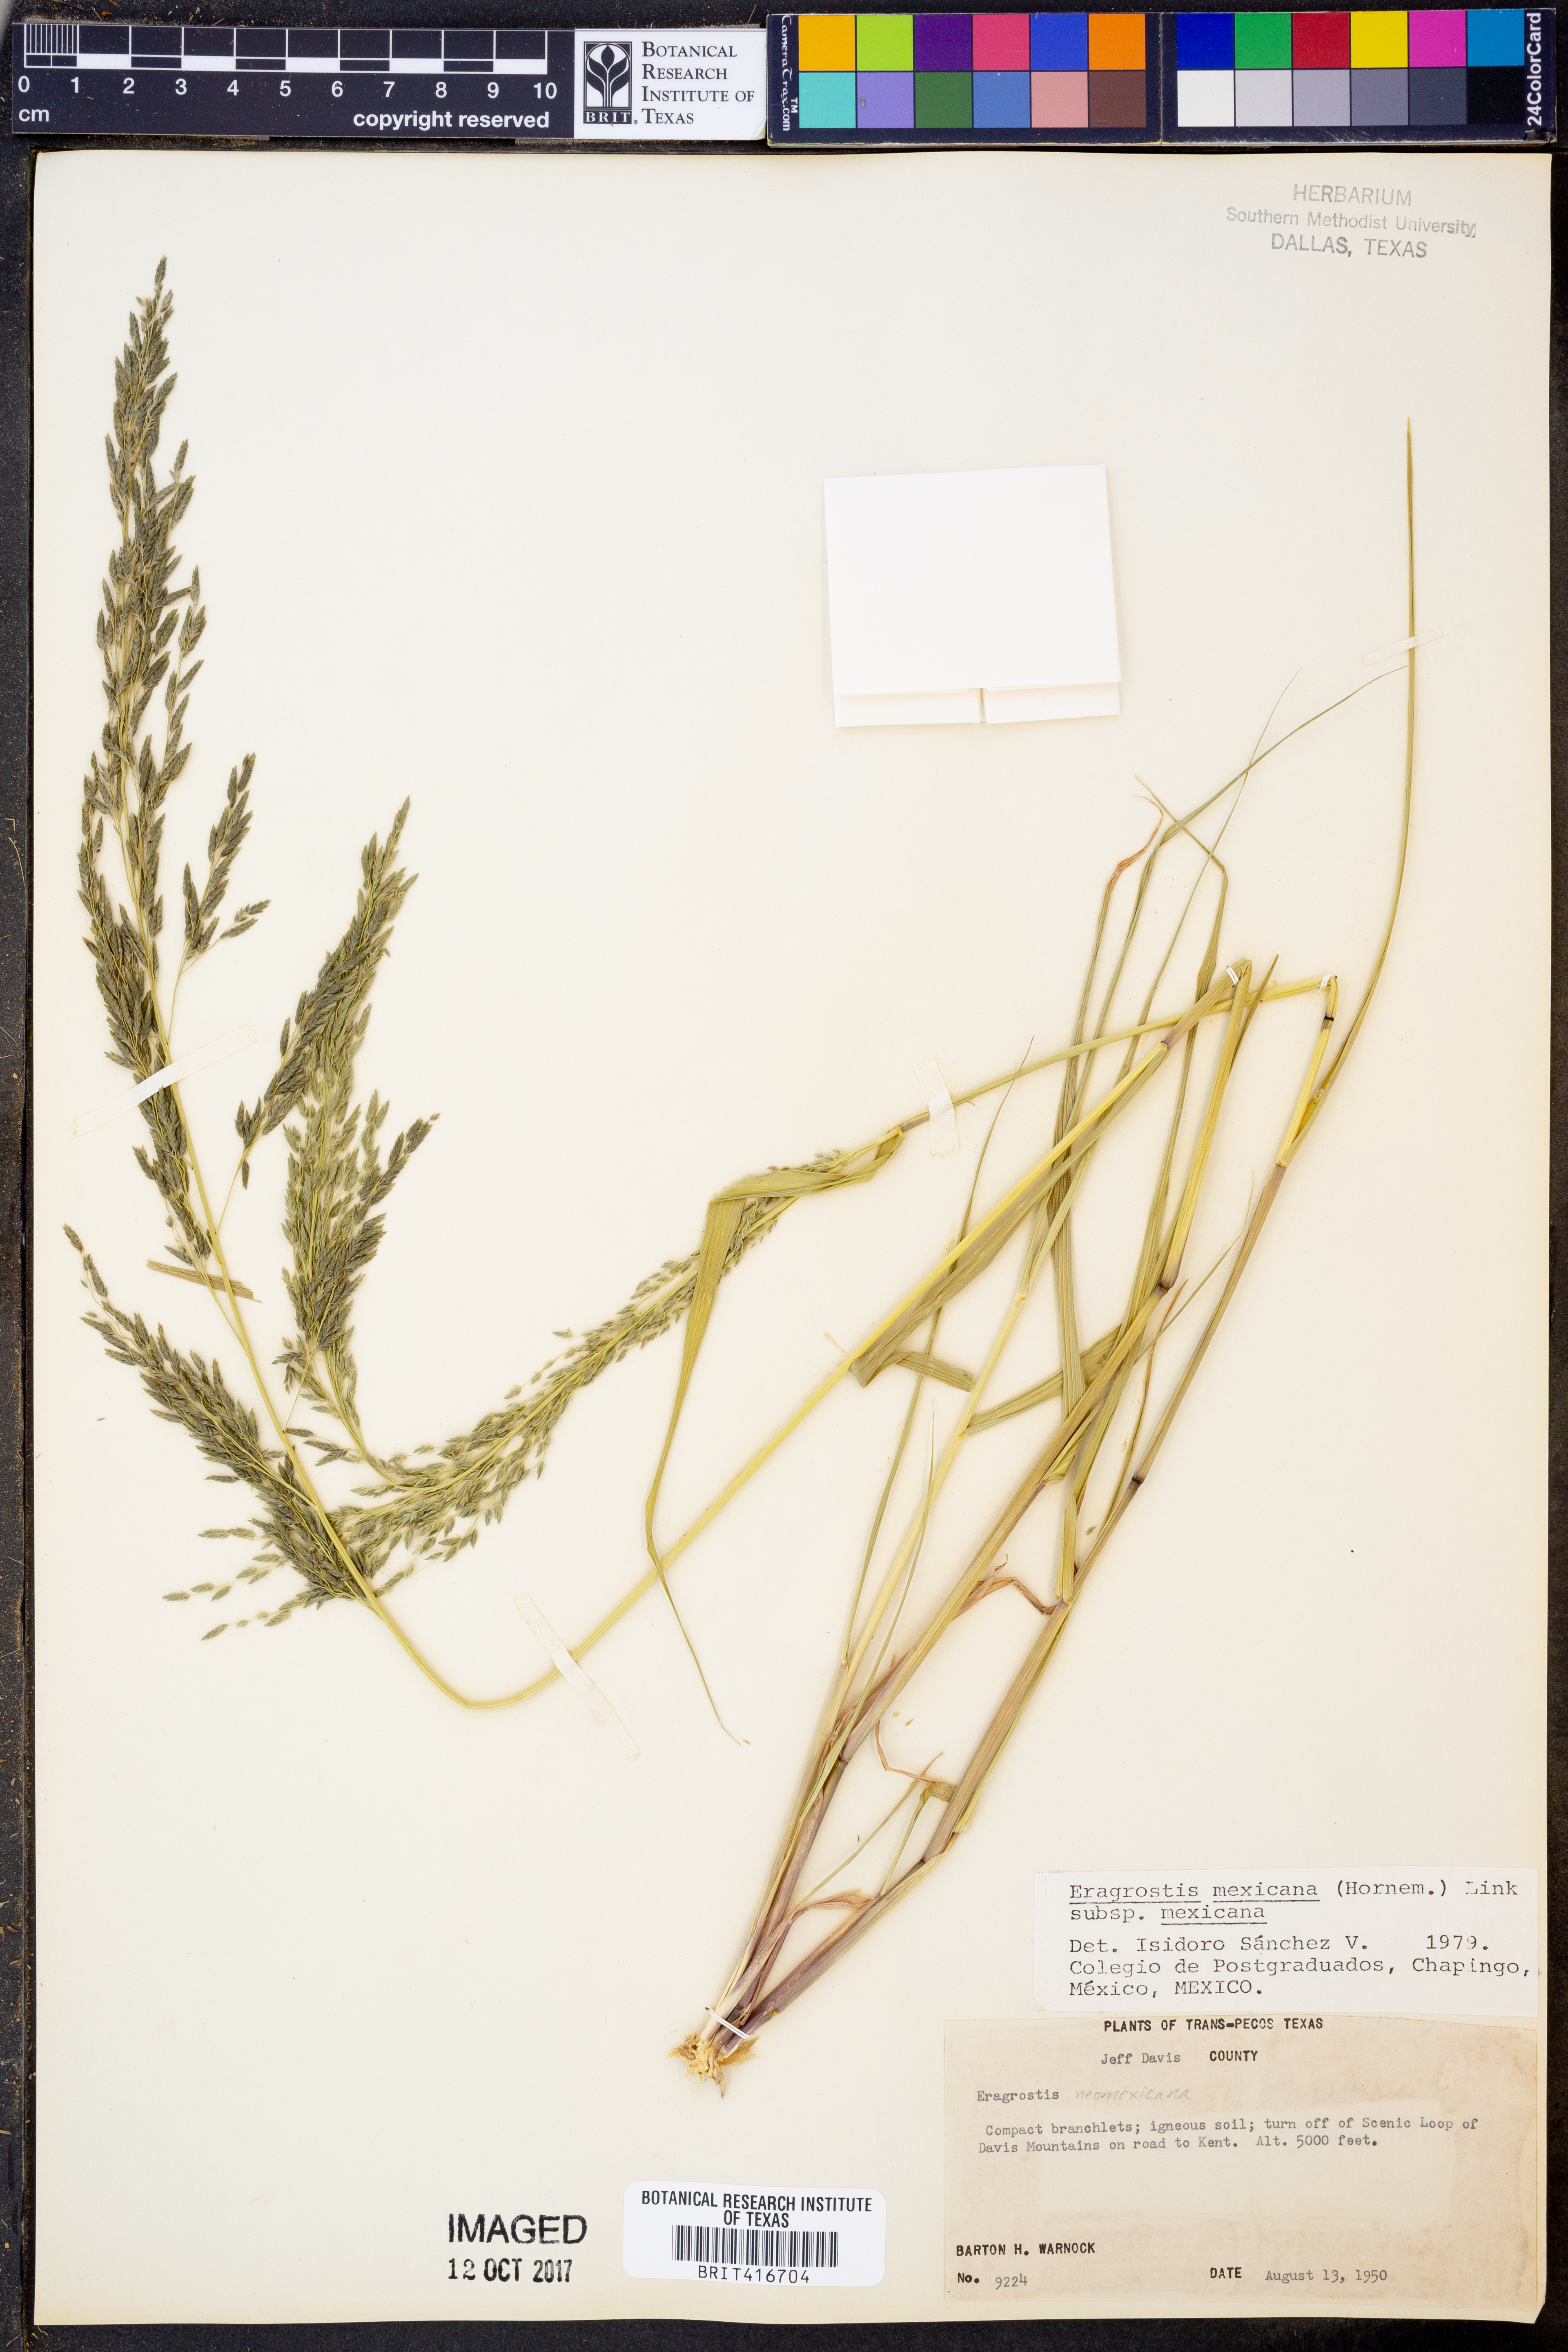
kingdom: Plantae
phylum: Tracheophyta
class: Liliopsida
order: Poales
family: Poaceae
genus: Eragrostis
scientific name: Eragrostis mexicana
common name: Mexican love grass
